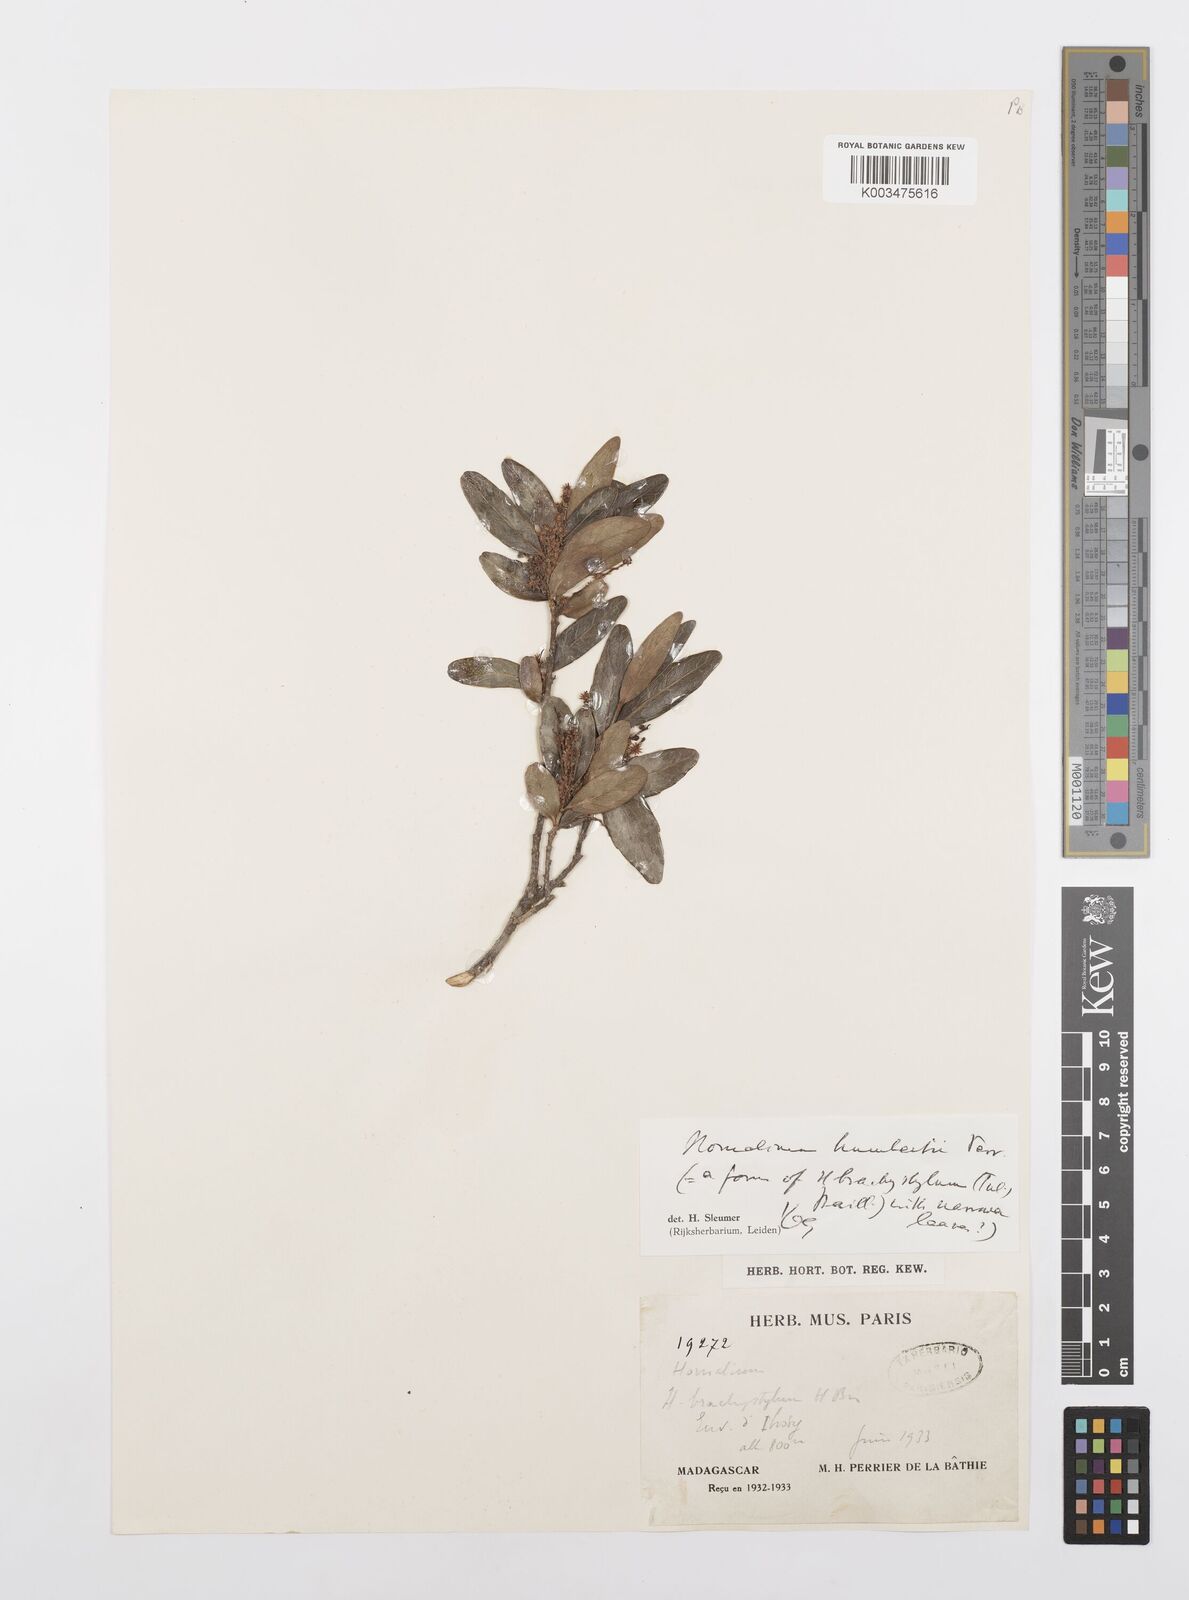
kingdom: Plantae
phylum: Tracheophyta
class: Magnoliopsida
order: Malpighiales
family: Salicaceae
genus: Homalium
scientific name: Homalium brachystylis
